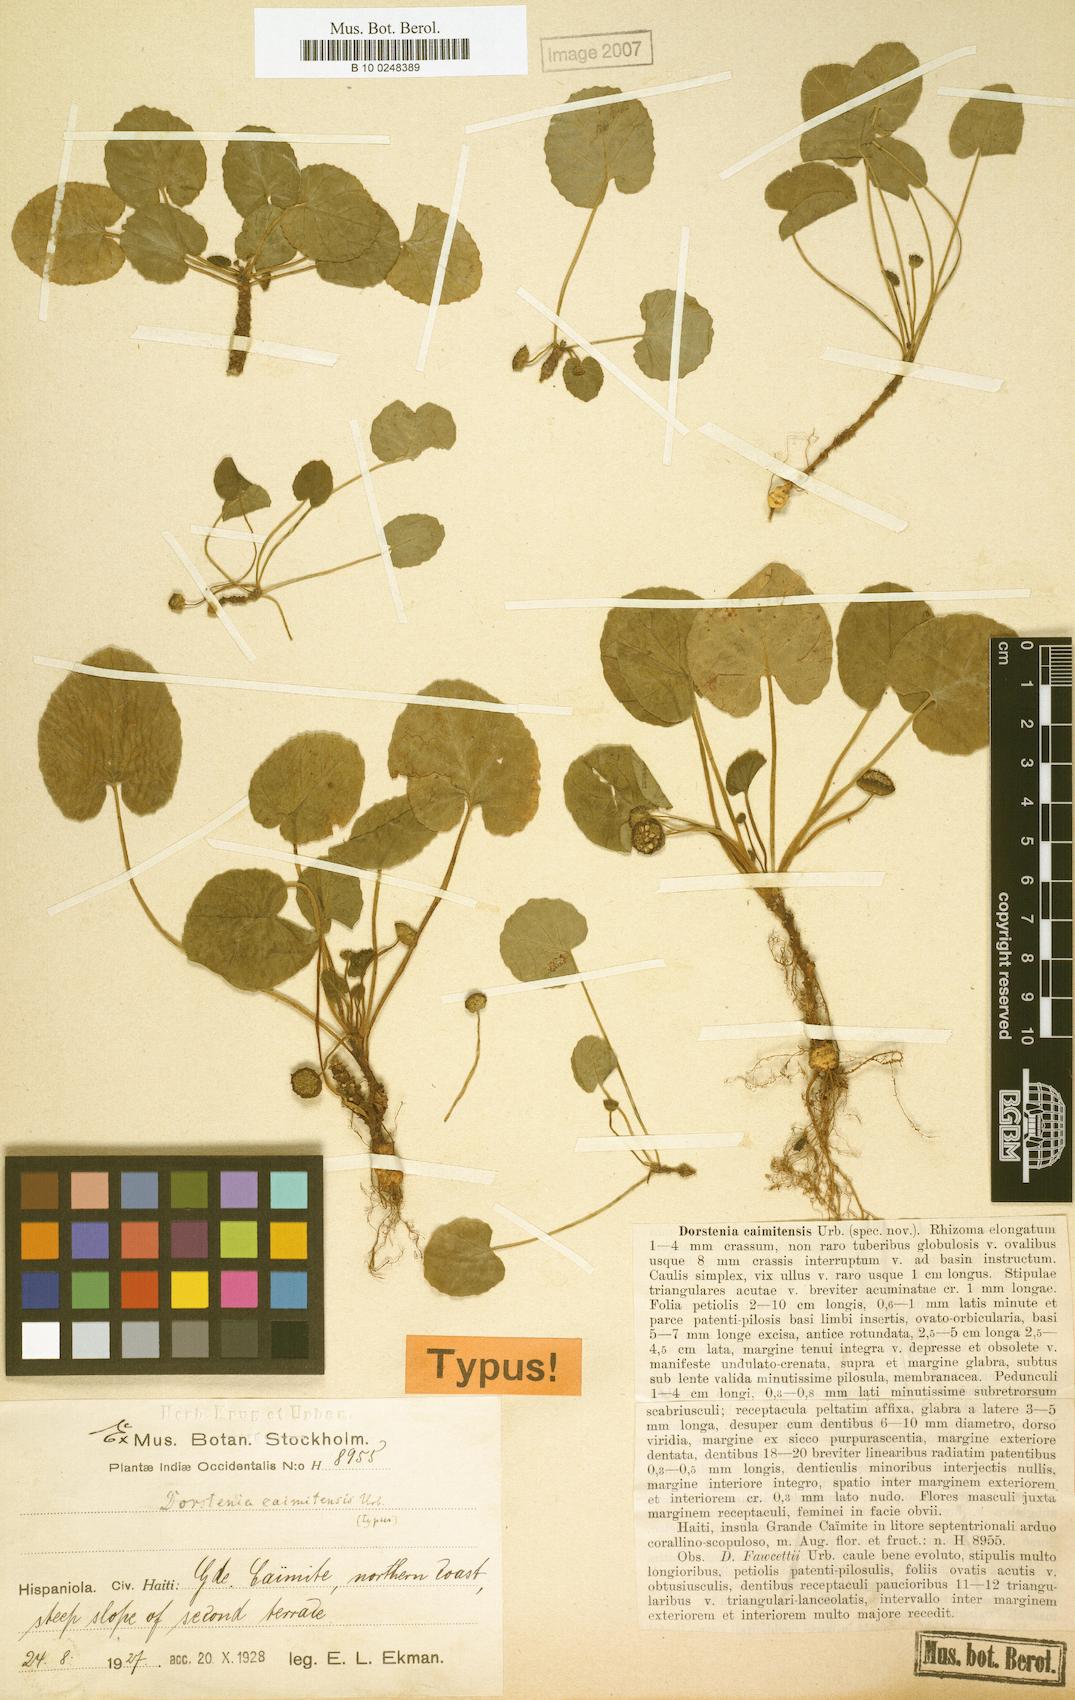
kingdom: Plantae
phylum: Tracheophyta
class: Magnoliopsida
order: Rosales
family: Moraceae
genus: Dorstenia
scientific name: Dorstenia caimitensis
